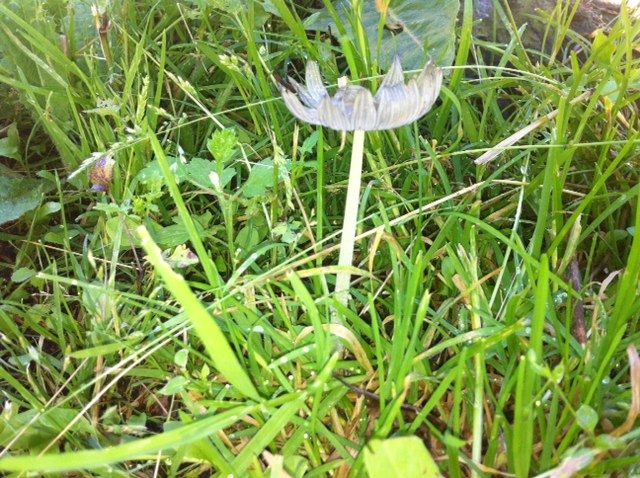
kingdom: Fungi
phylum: Basidiomycota
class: Agaricomycetes
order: Agaricales
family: Psathyrellaceae
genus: Coprinopsis
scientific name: Coprinopsis lagopus
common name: dunstokket blækhat
